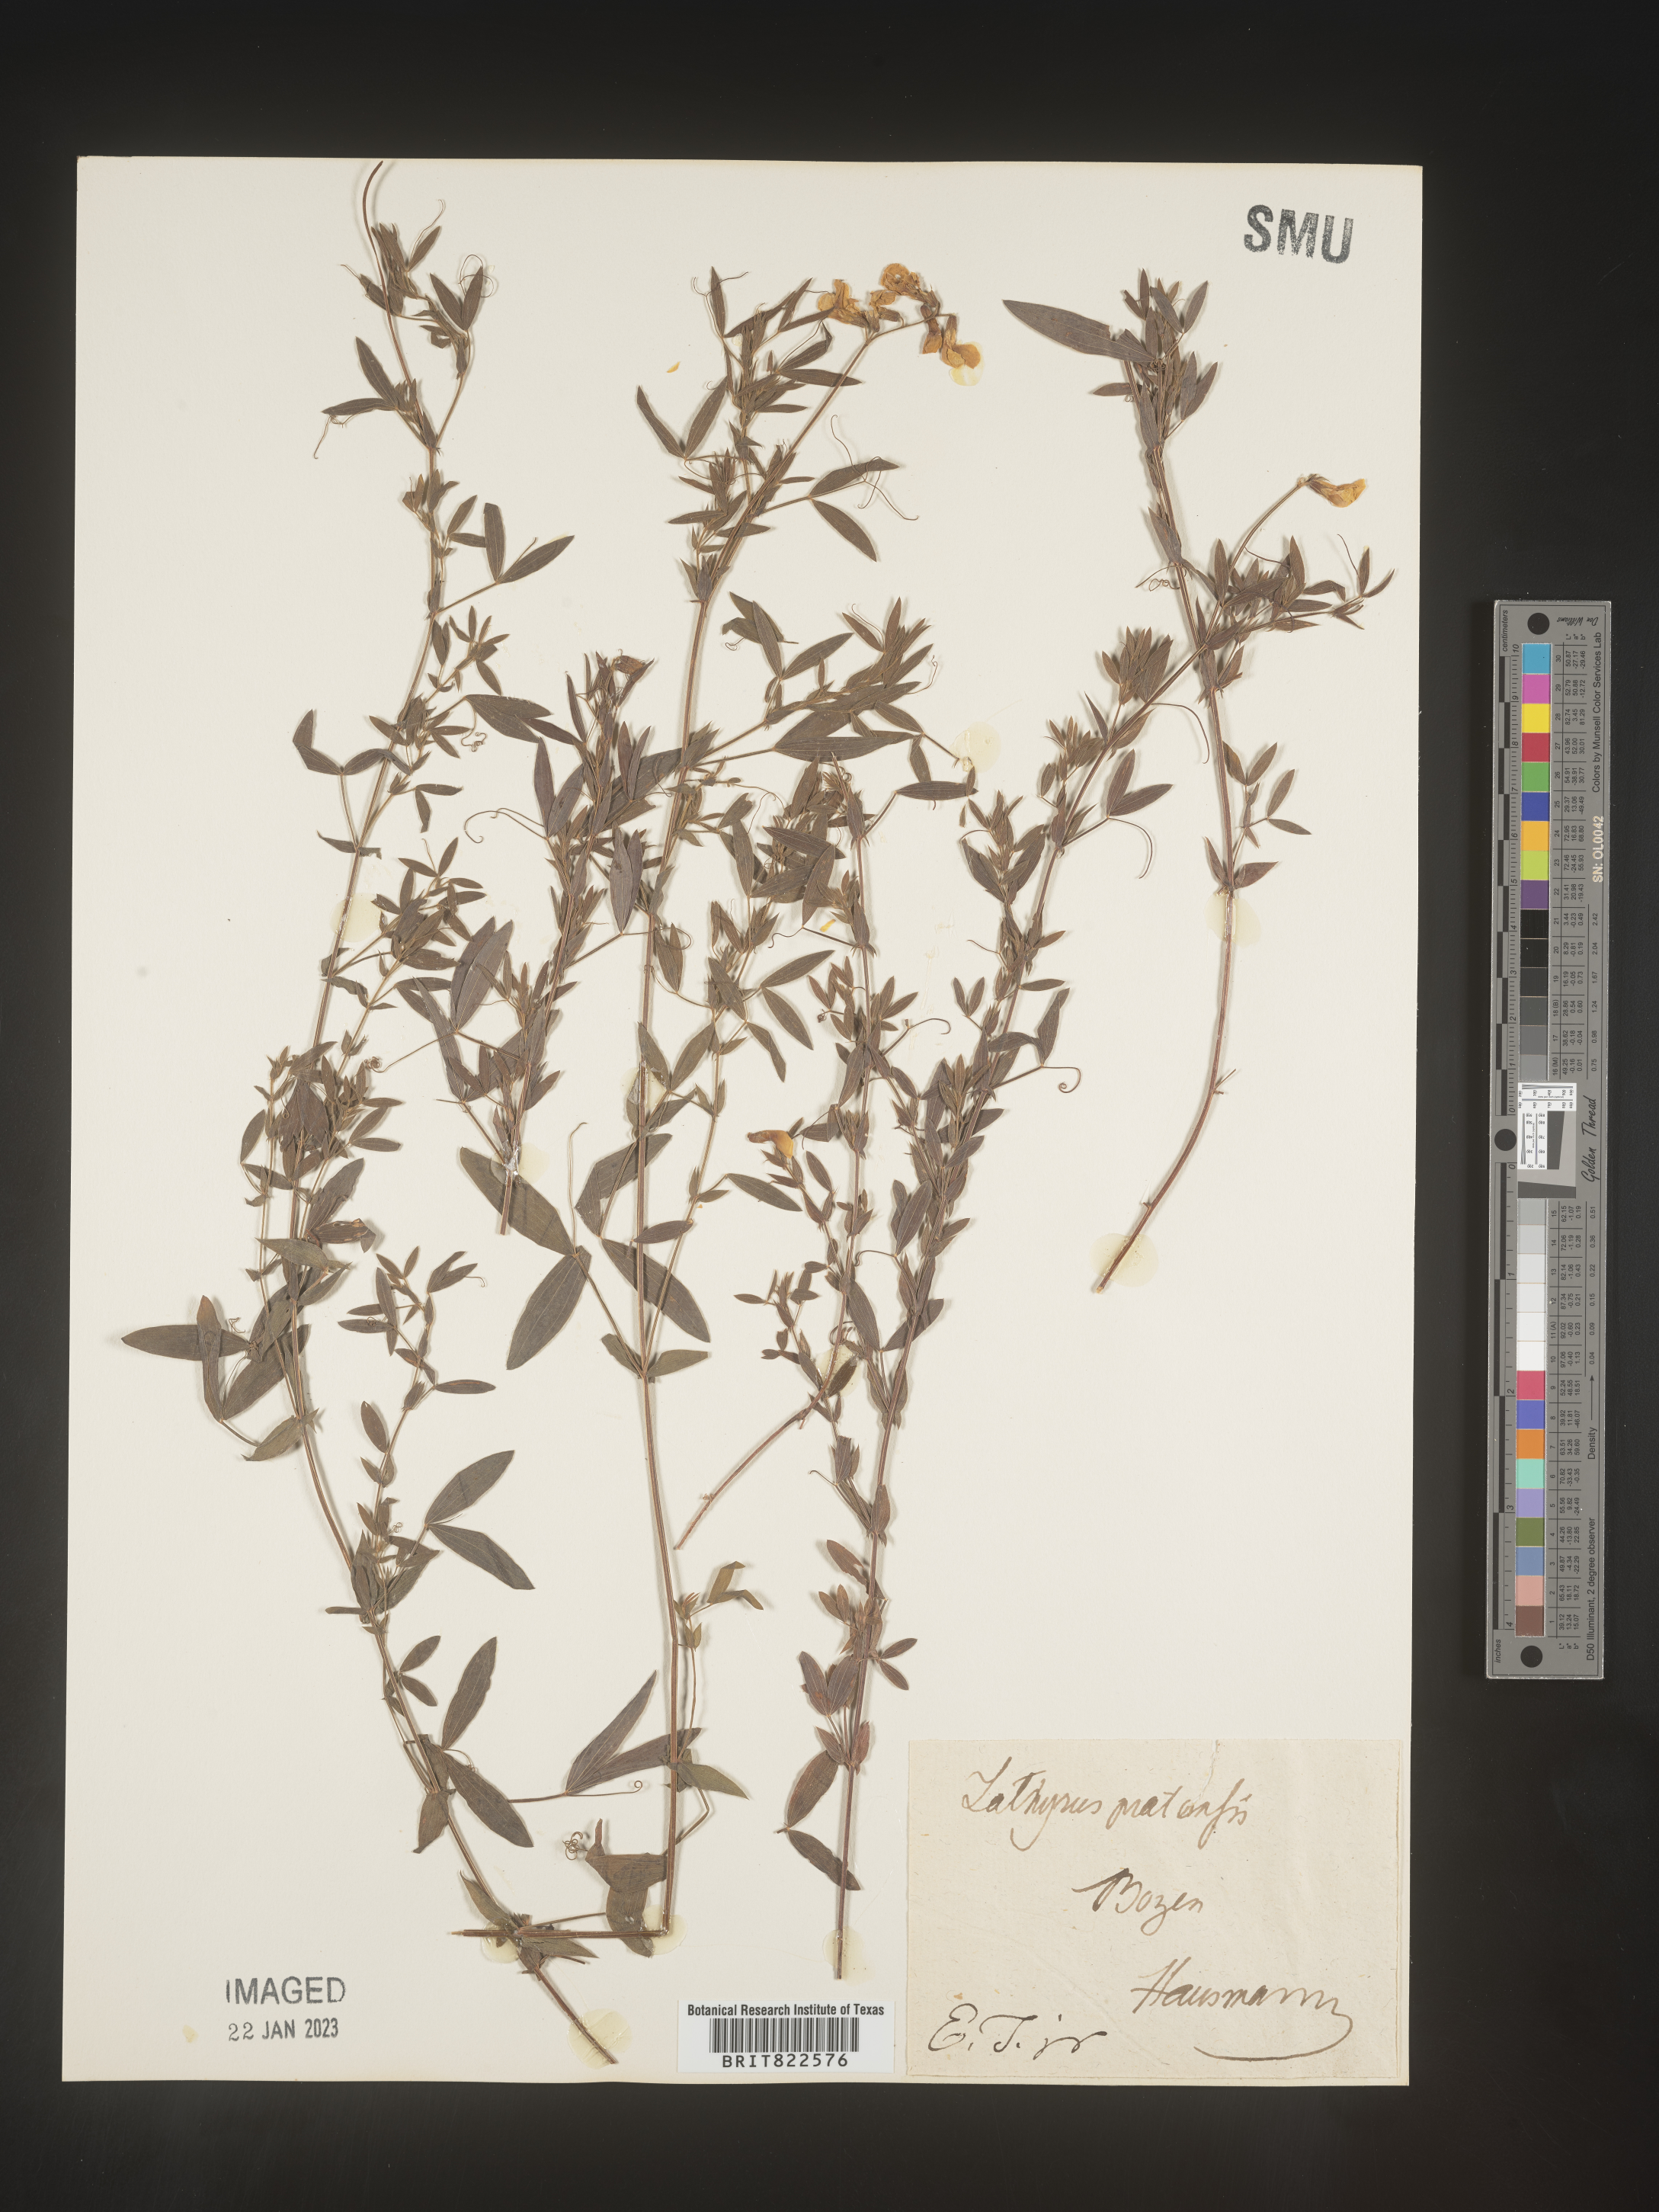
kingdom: Plantae
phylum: Tracheophyta
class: Magnoliopsida
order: Fabales
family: Fabaceae
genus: Lathyrus
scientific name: Lathyrus
